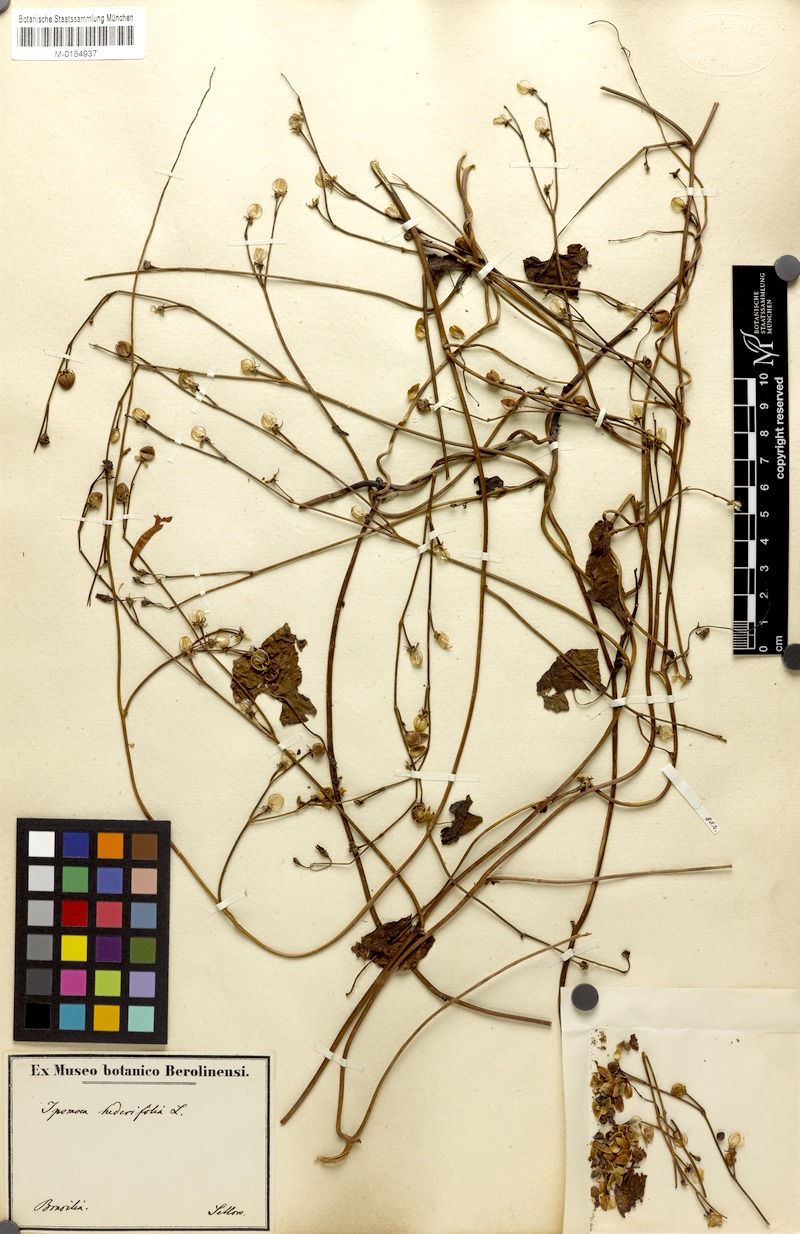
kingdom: Plantae
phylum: Tracheophyta
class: Magnoliopsida
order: Solanales
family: Convolvulaceae
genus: Ipomoea
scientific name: Ipomoea eriocarpa
